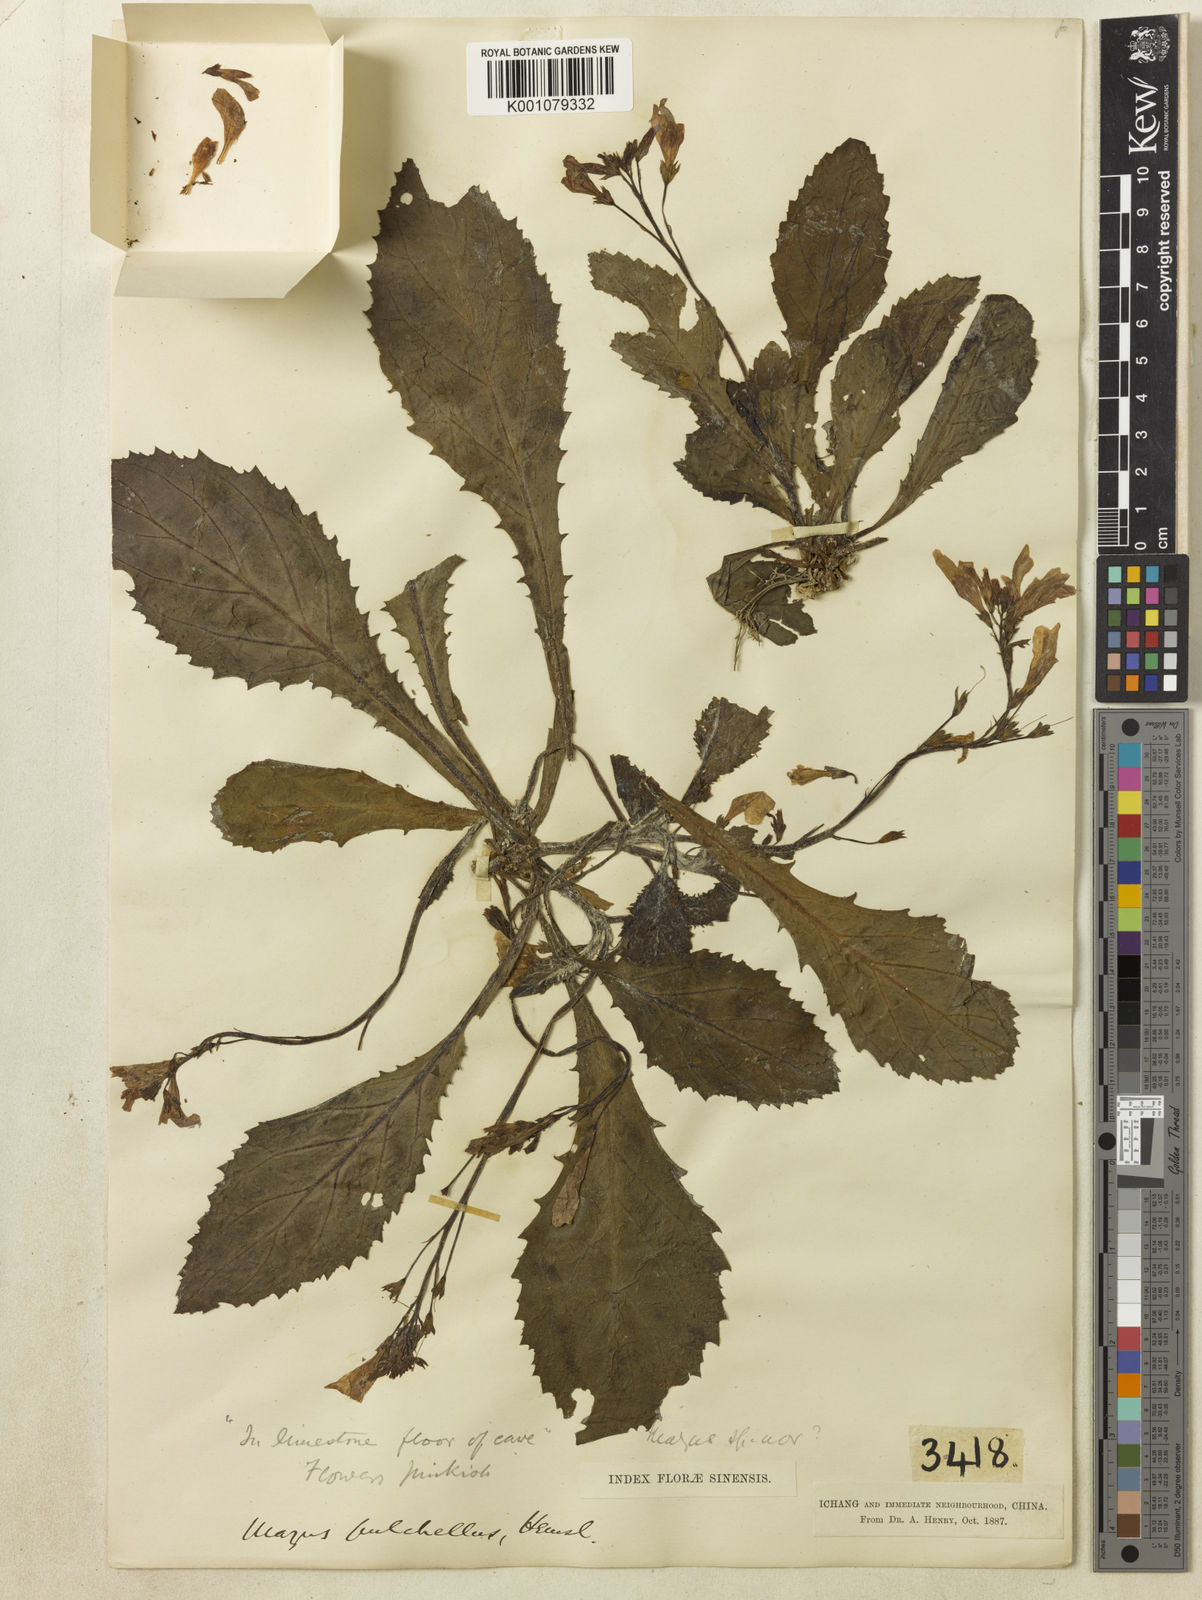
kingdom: Plantae
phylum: Tracheophyta
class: Magnoliopsida
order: Lamiales
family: Mazaceae
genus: Mazus
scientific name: Mazus pulchellus
